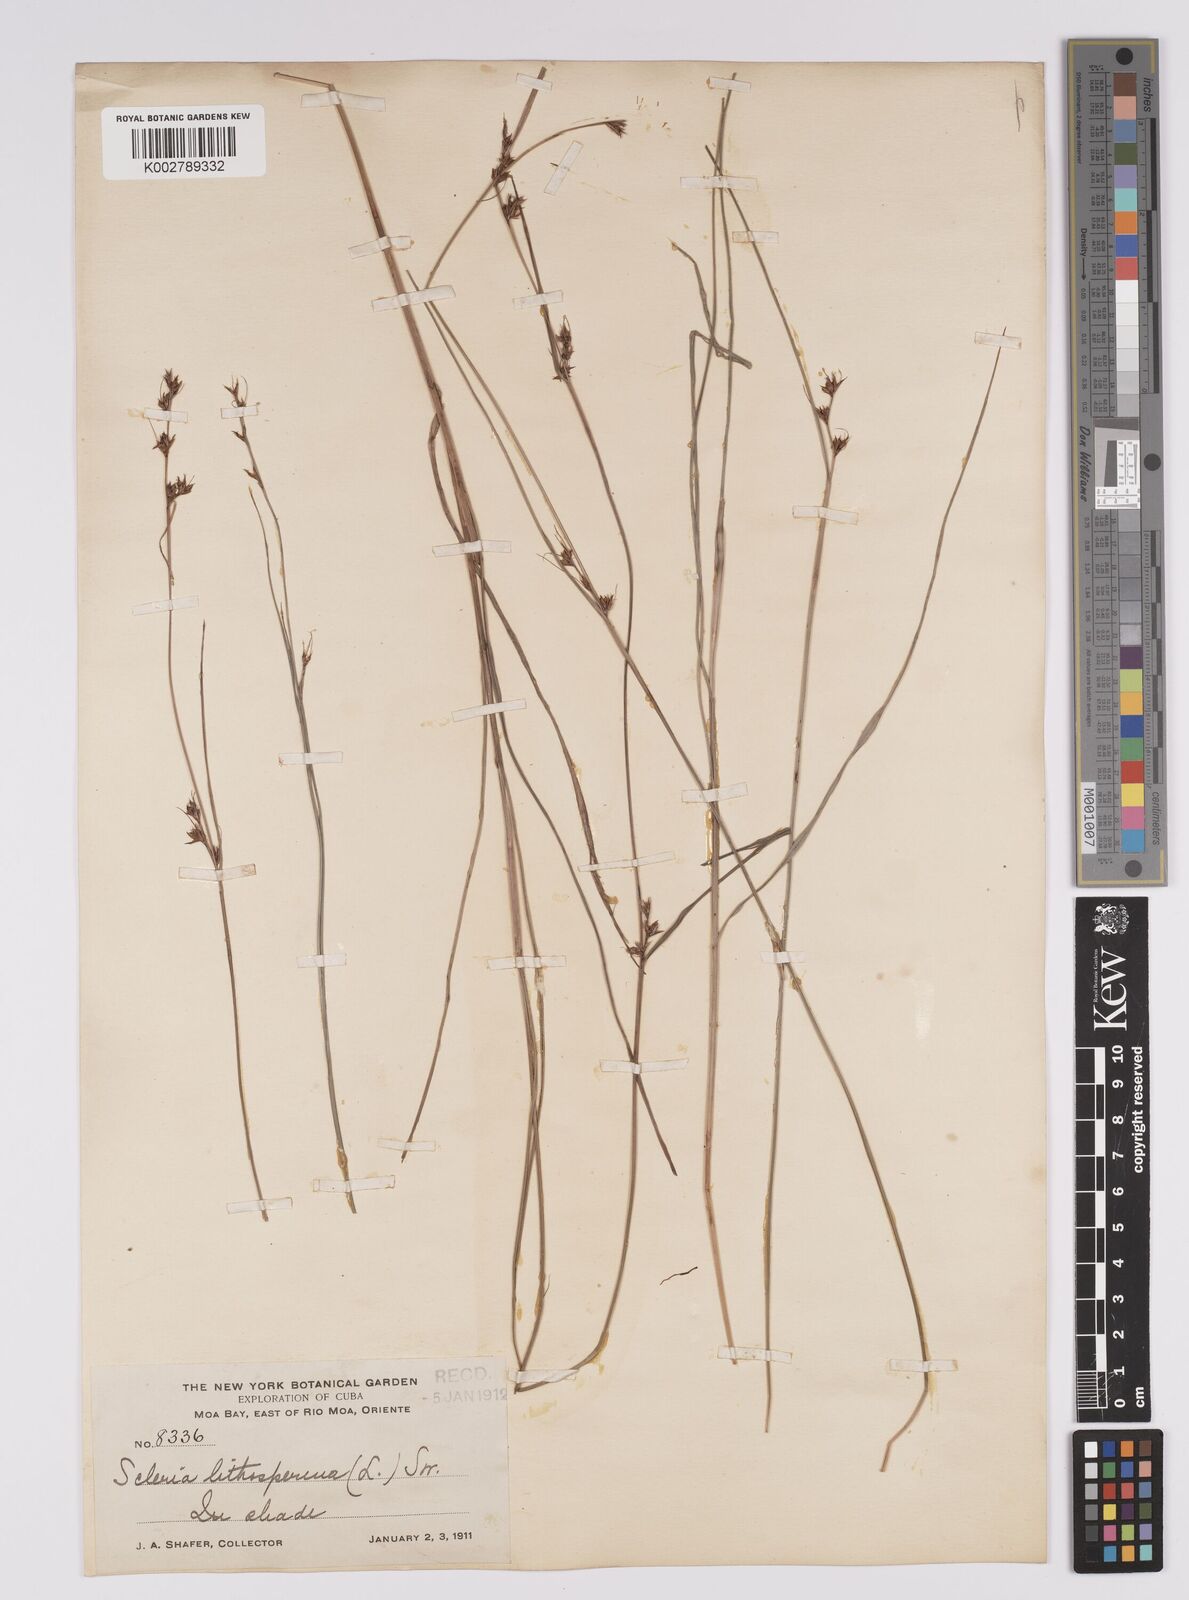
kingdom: Plantae
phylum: Tracheophyta
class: Liliopsida
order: Poales
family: Cyperaceae
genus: Scleria
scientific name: Scleria lithosperma
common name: Florida keys nut-rush
